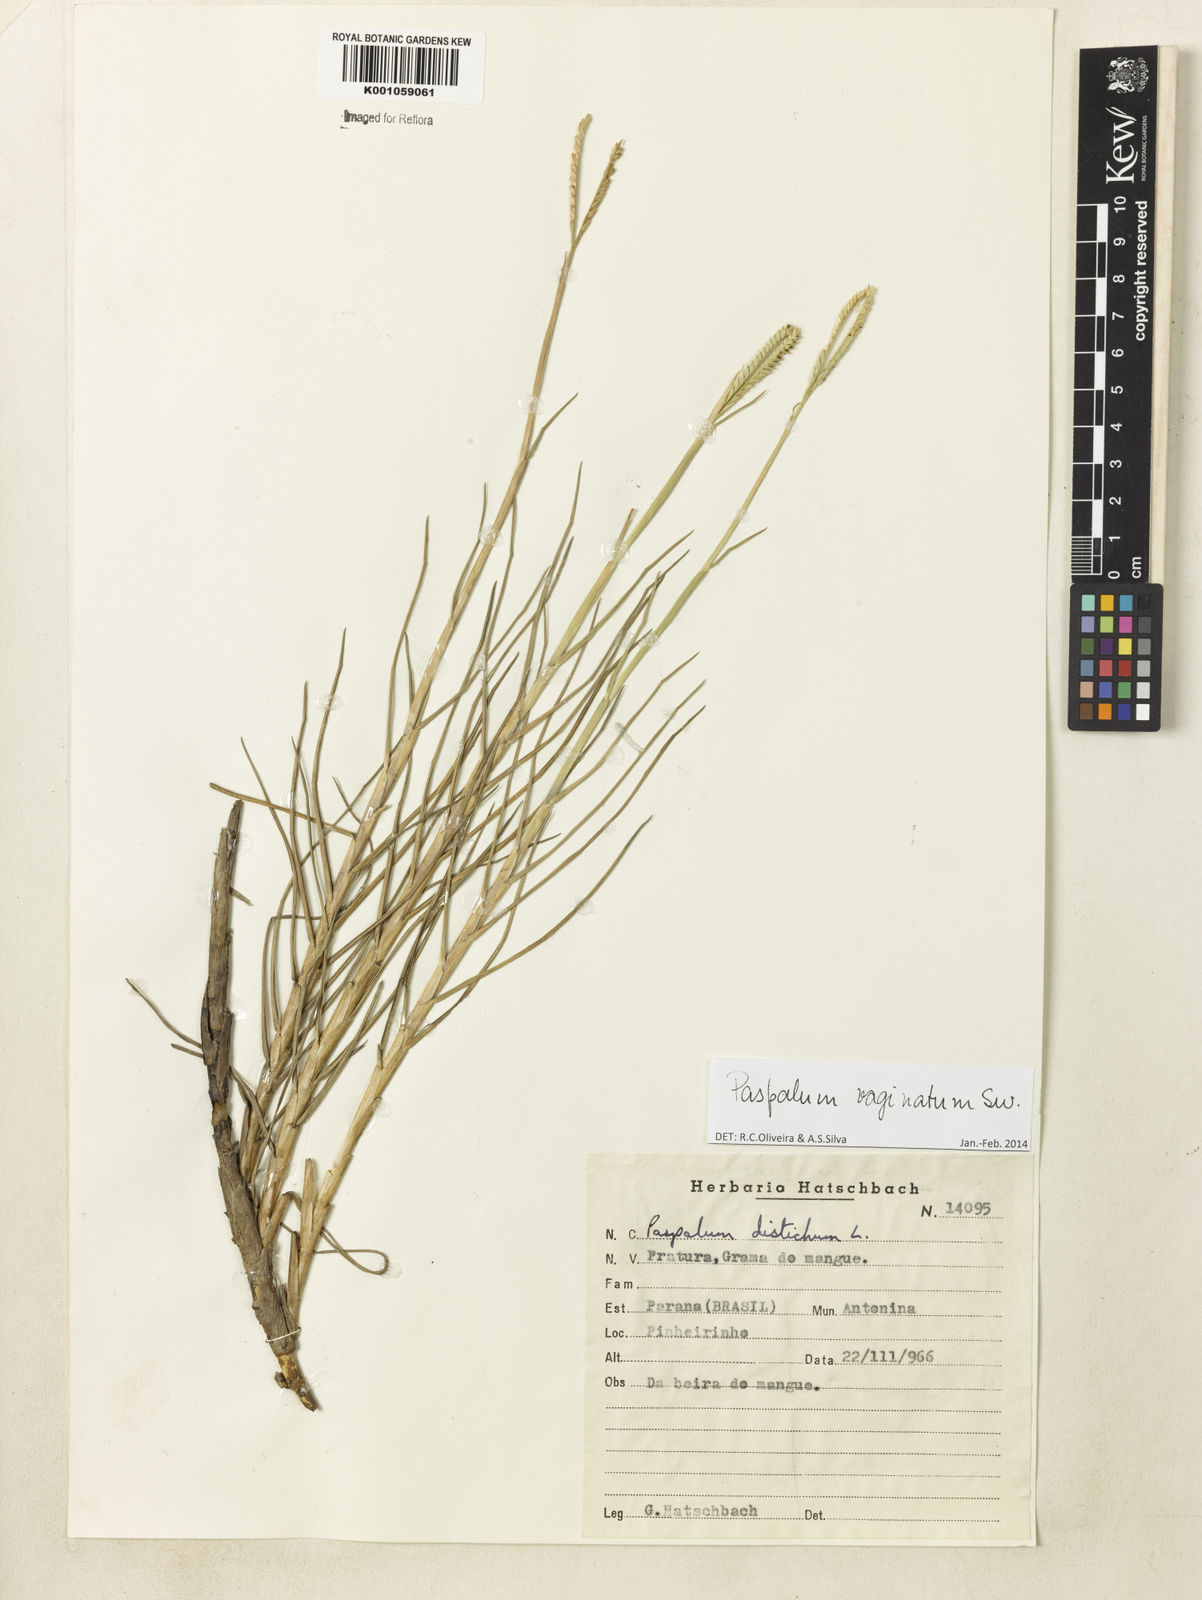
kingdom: Plantae
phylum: Tracheophyta
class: Liliopsida
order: Poales
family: Poaceae
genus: Paspalum
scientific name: Paspalum vaginatum
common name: Seashore paspalum
